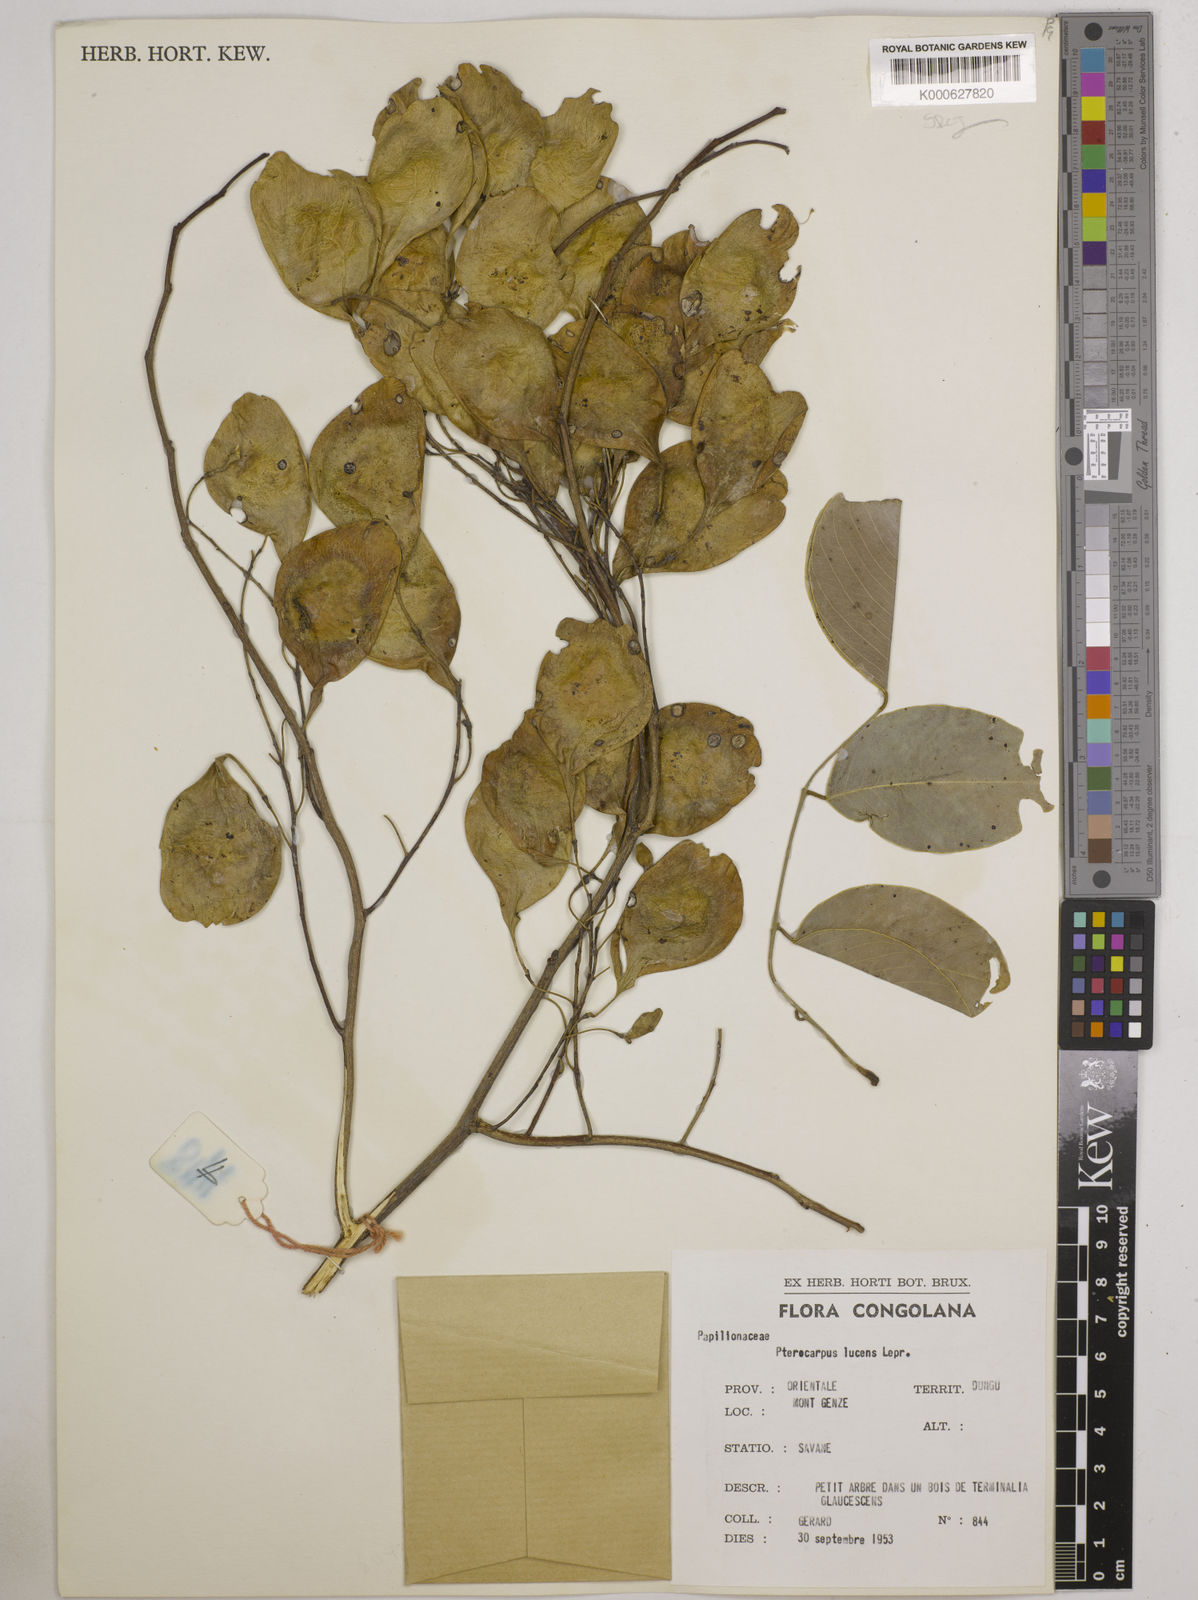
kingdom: Plantae
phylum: Tracheophyta
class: Magnoliopsida
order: Fabales
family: Fabaceae
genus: Pterocarpus
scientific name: Pterocarpus lucens
